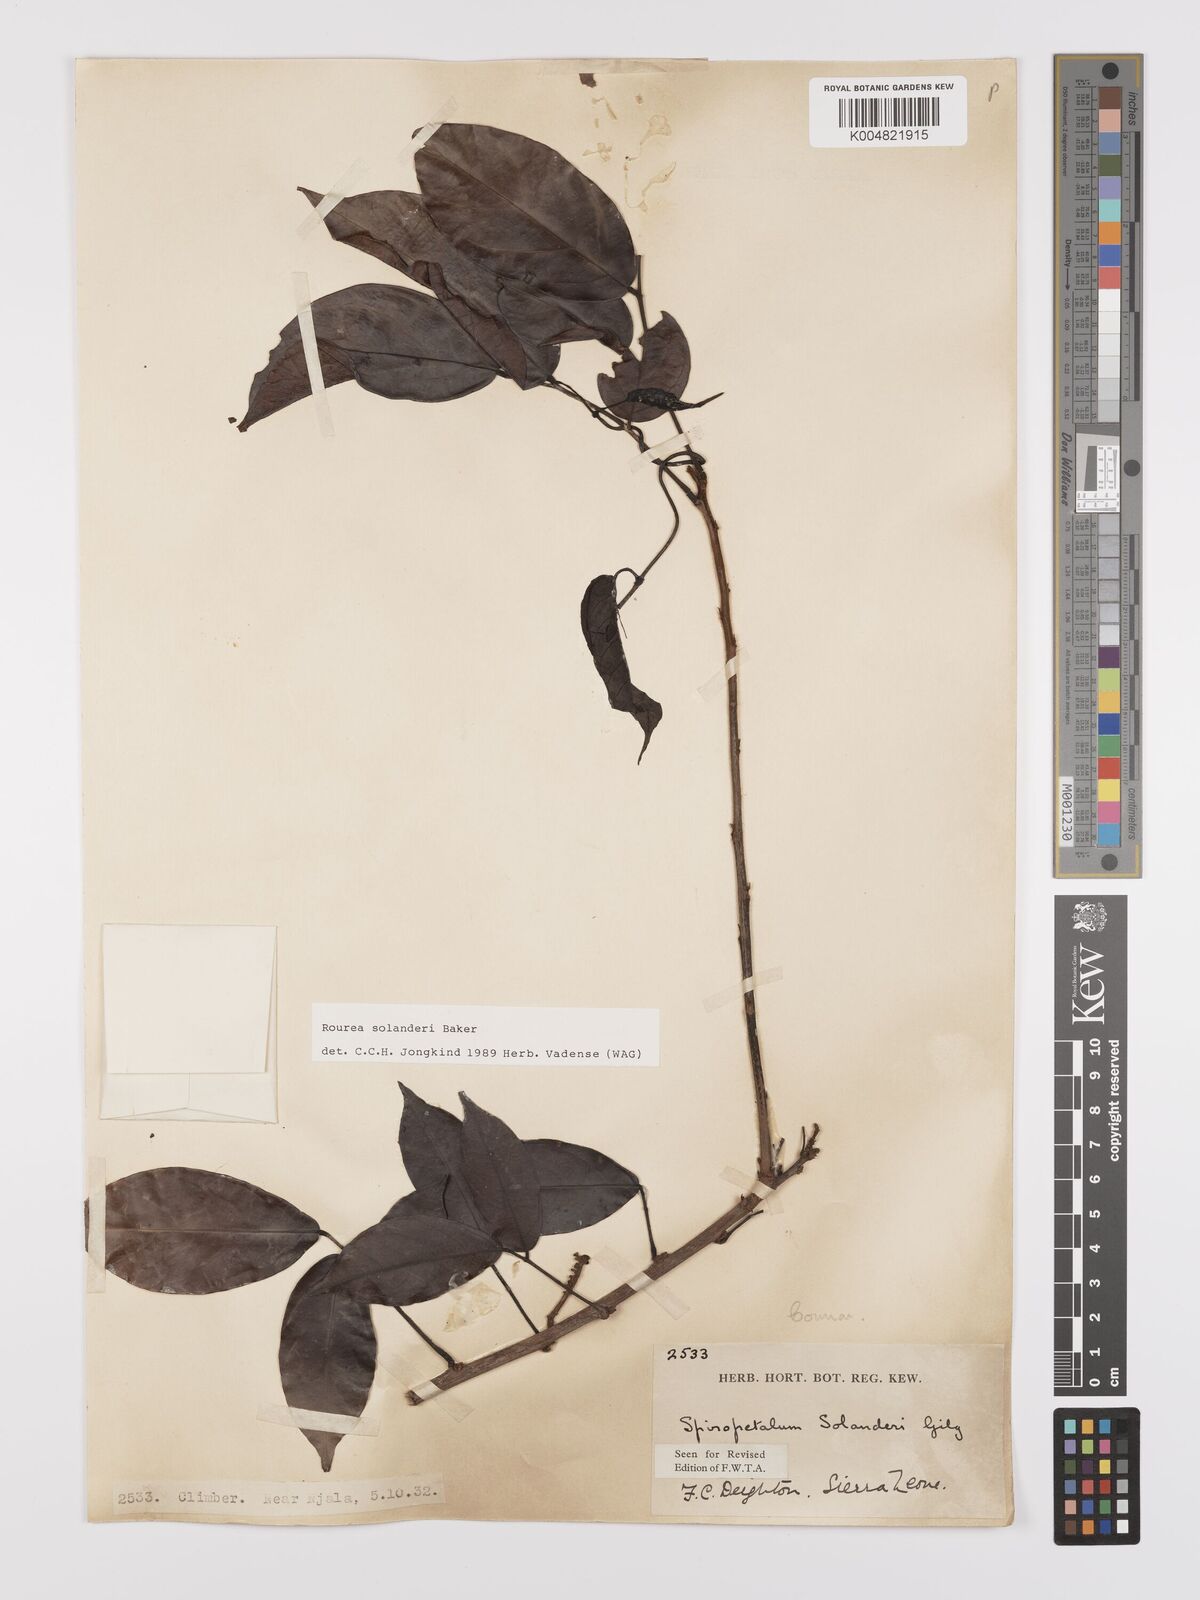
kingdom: Plantae
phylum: Tracheophyta
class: Magnoliopsida
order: Oxalidales
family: Connaraceae
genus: Rourea
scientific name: Rourea solanderi
